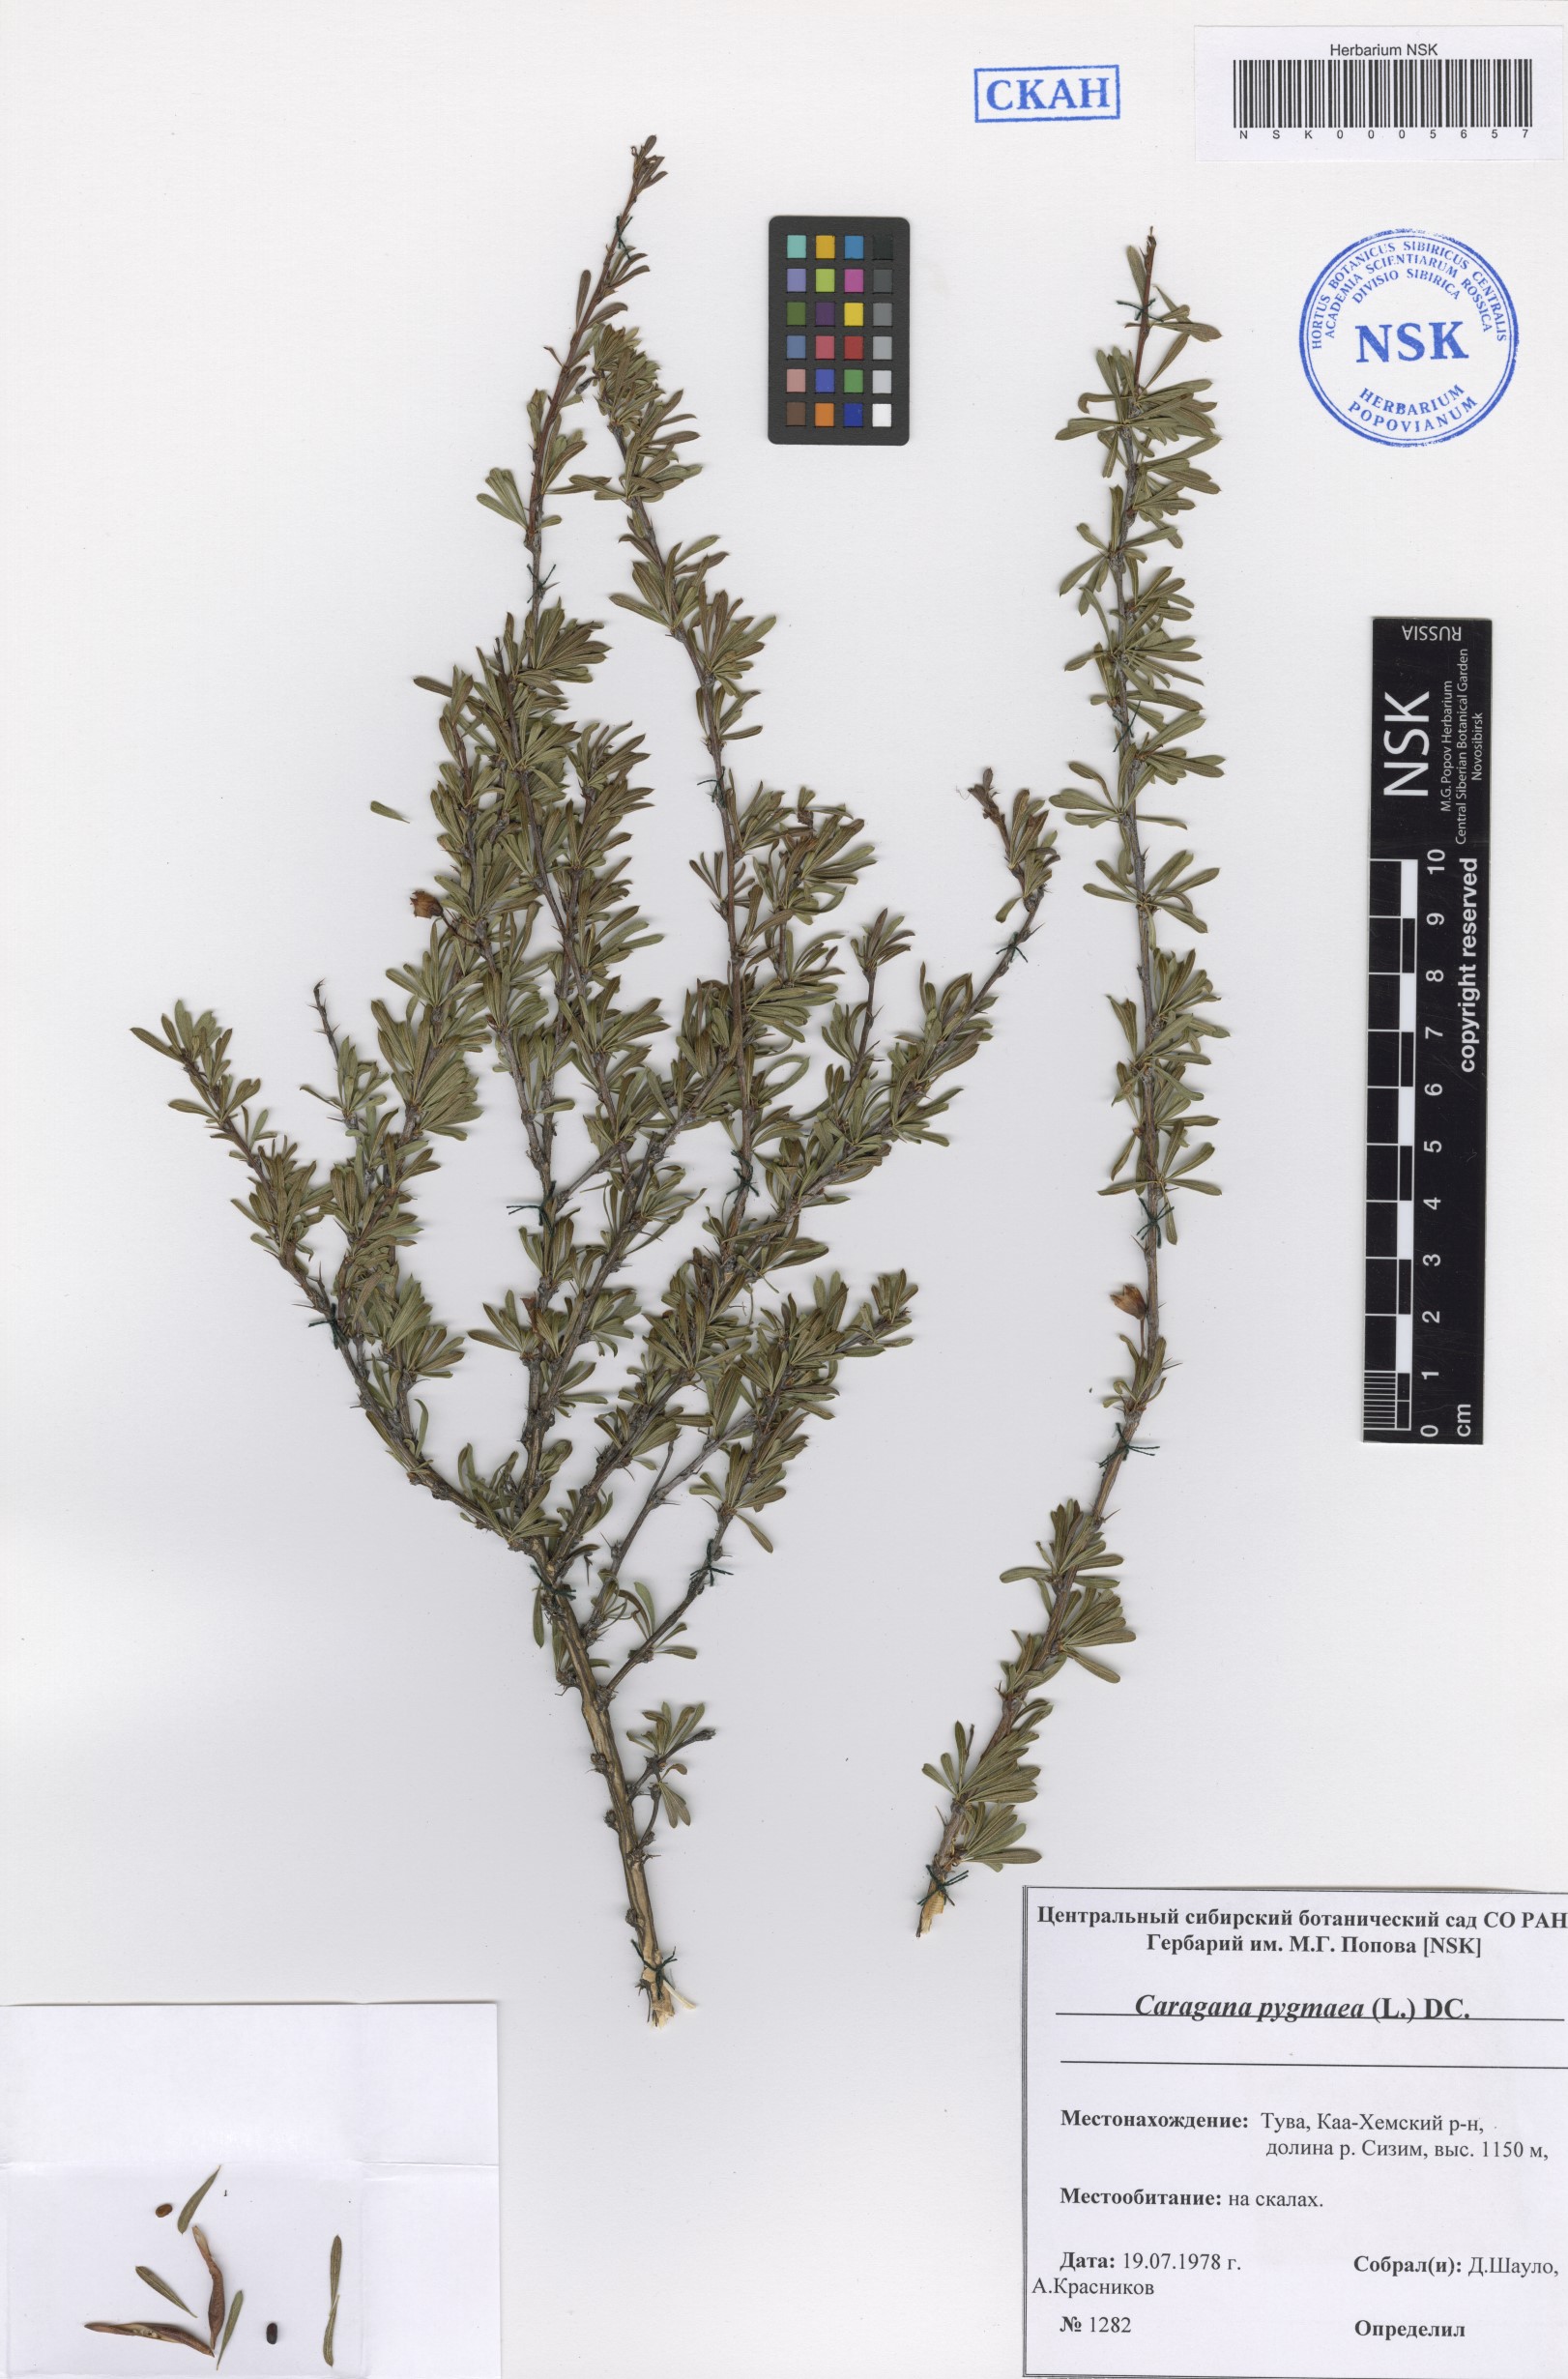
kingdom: Plantae
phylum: Tracheophyta
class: Magnoliopsida
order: Fabales
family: Fabaceae
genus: Caragana
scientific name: Caragana pygmaea
